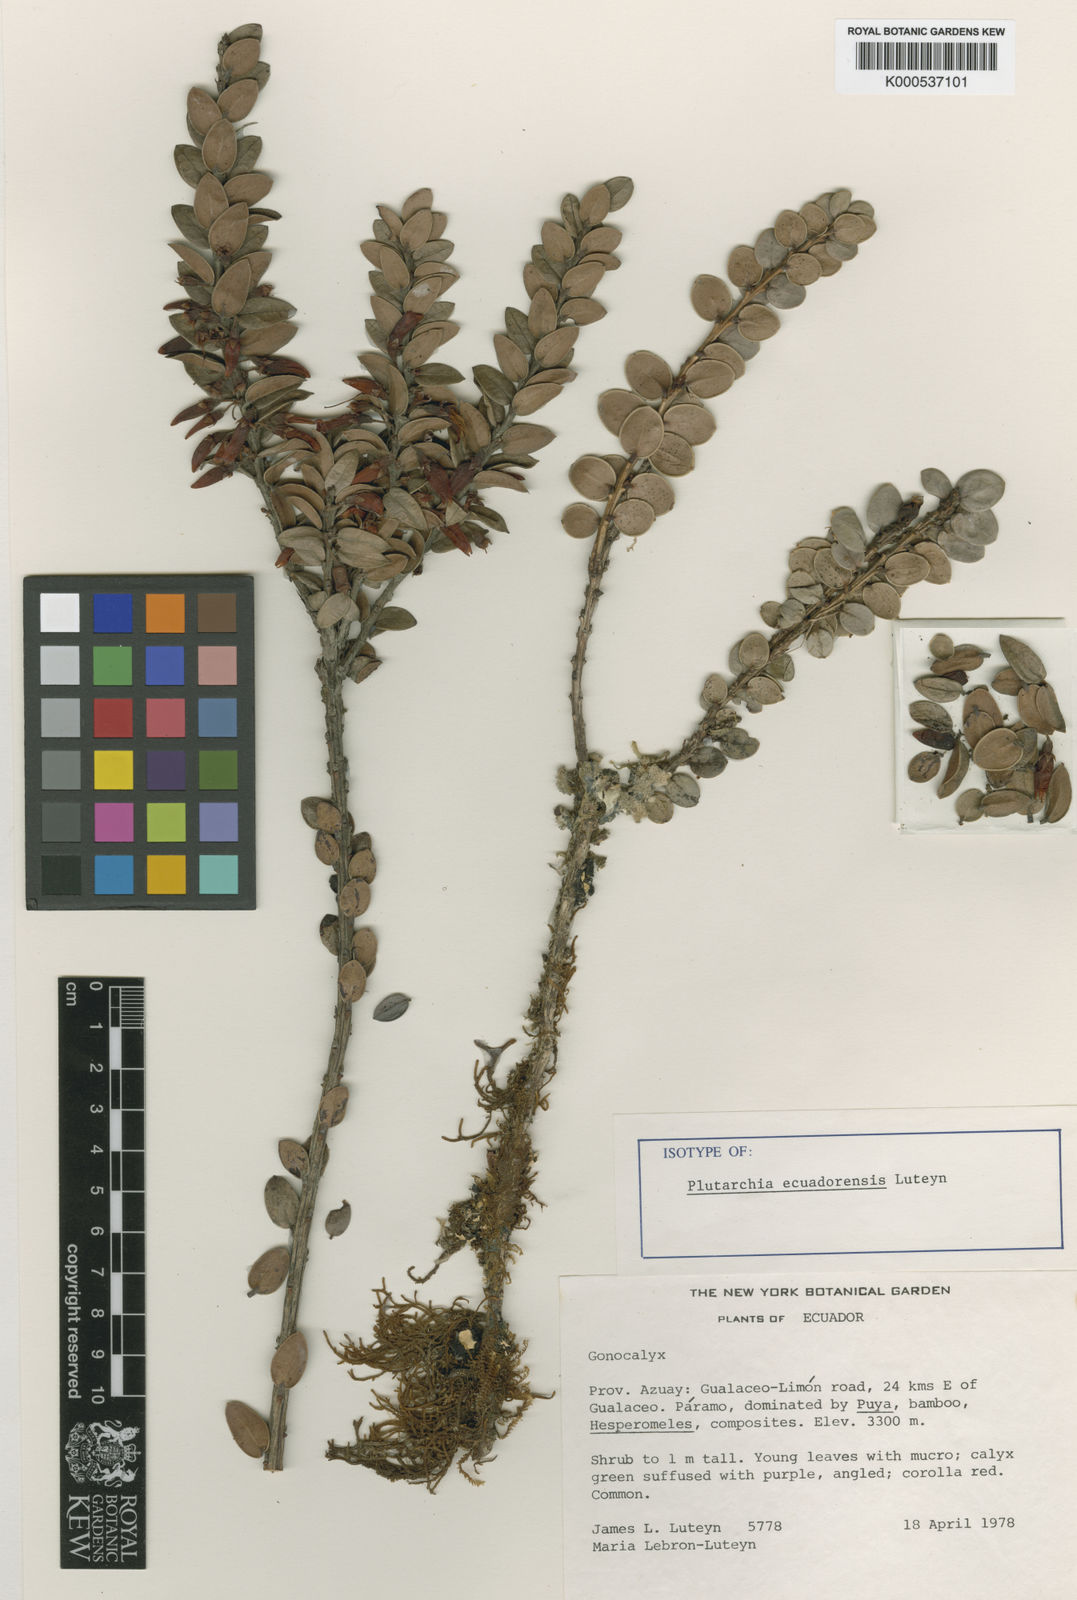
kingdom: Plantae
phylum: Tracheophyta
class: Magnoliopsida
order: Ericales
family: Ericaceae
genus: Plutarchia
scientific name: Plutarchia ecuadorensis
